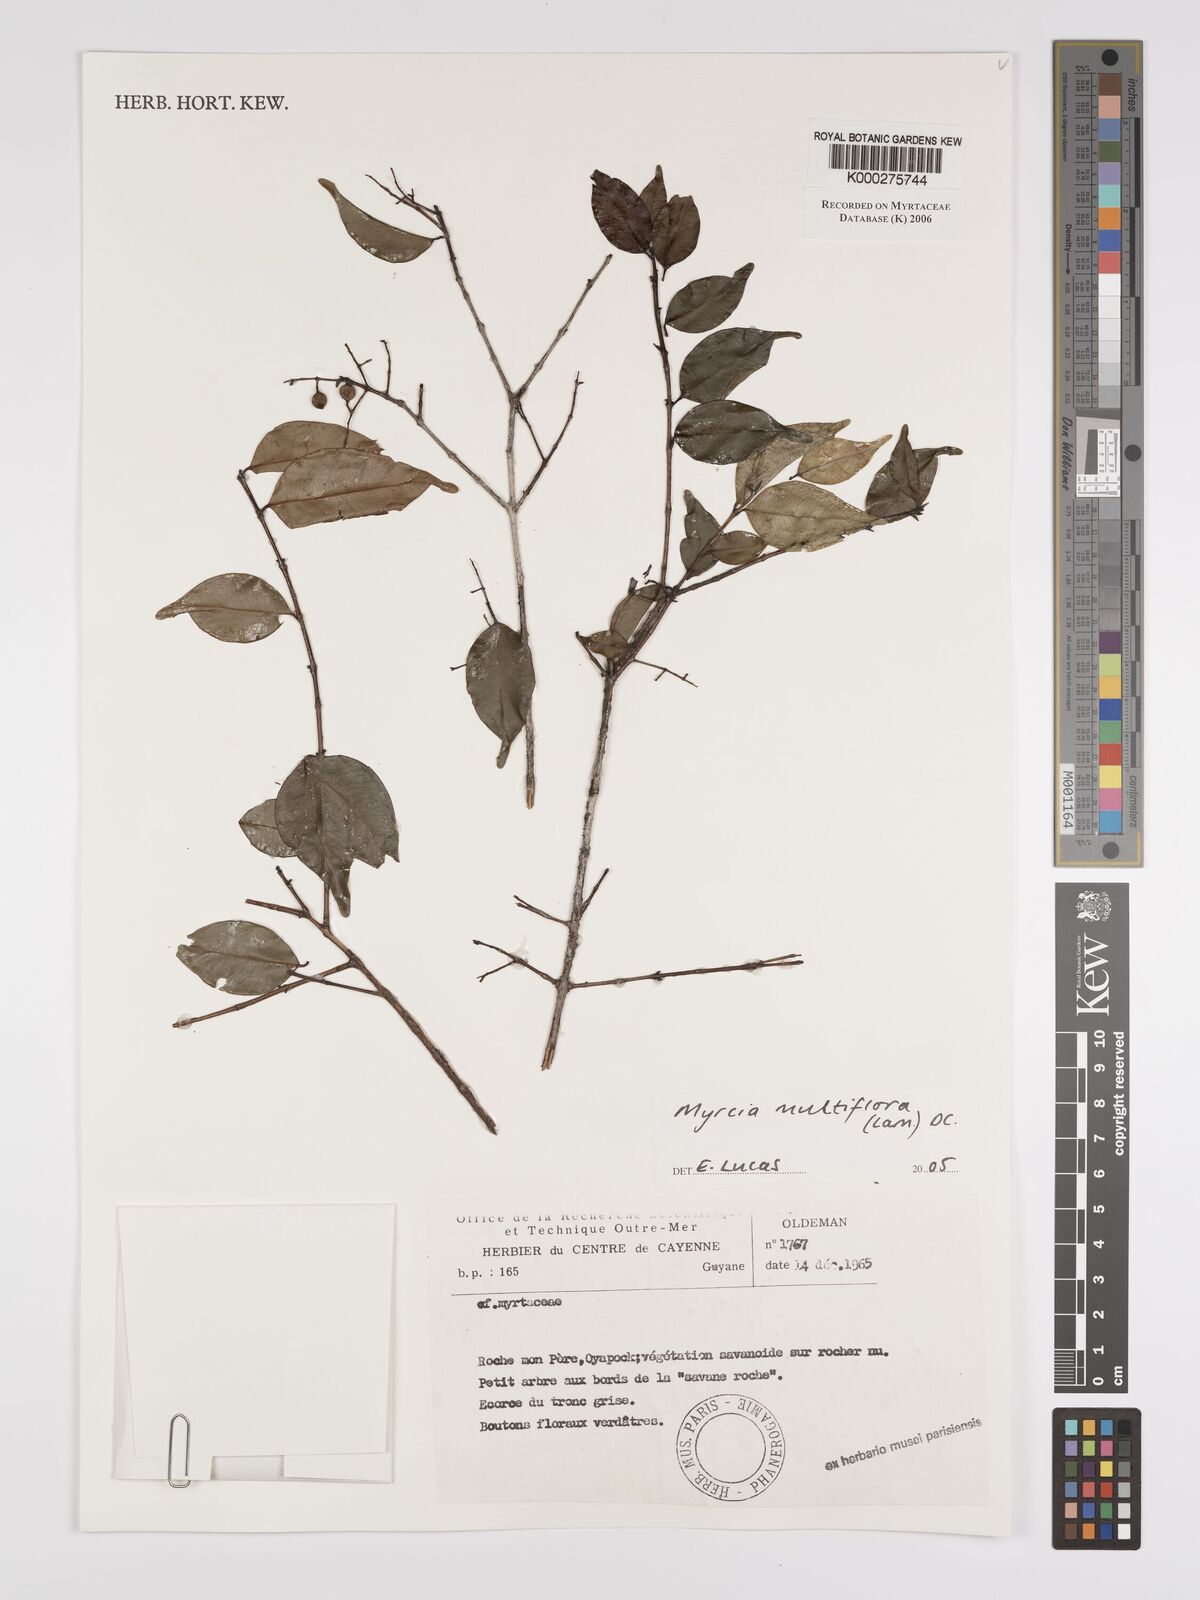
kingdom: Plantae
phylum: Tracheophyta
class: Magnoliopsida
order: Myrtales
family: Myrtaceae
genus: Myrcia
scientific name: Myrcia multiflora
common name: Pedra hume
